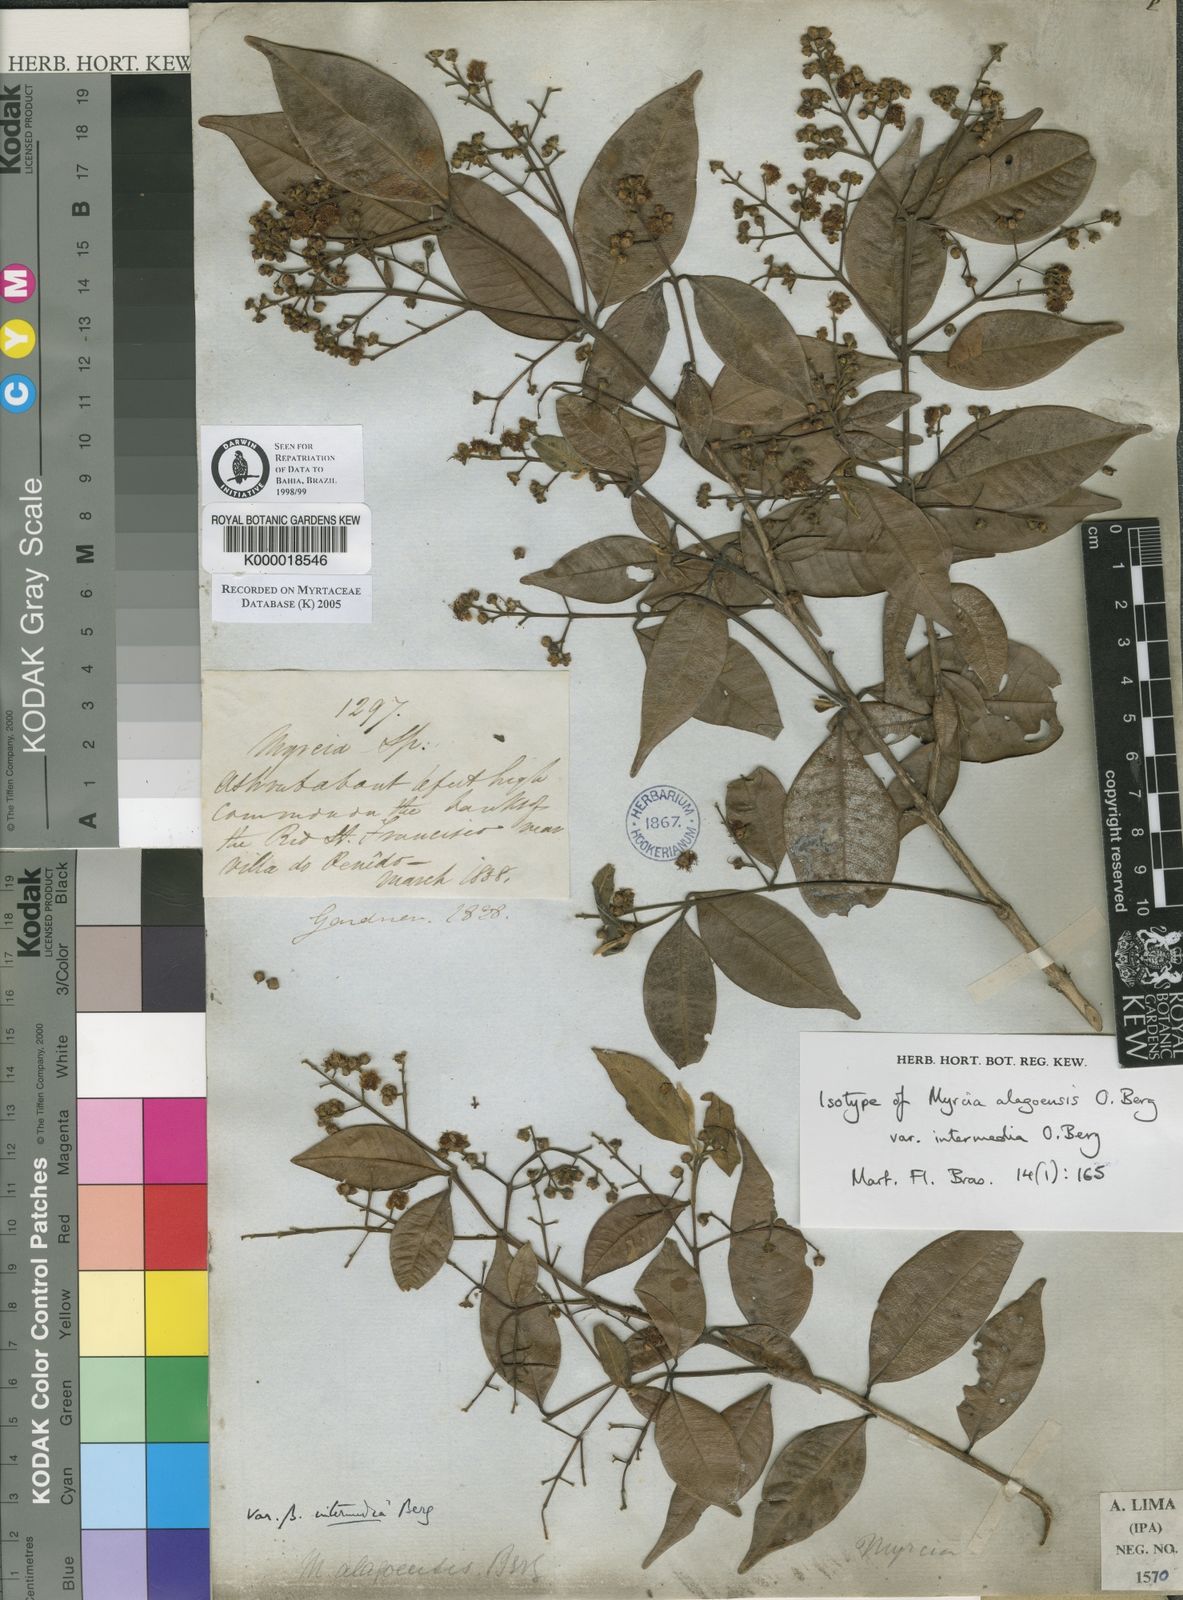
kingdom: Plantae
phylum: Tracheophyta
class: Magnoliopsida
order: Myrtales
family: Myrtaceae
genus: Myrcia
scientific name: Myrcia splendens
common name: Surinam cherry
